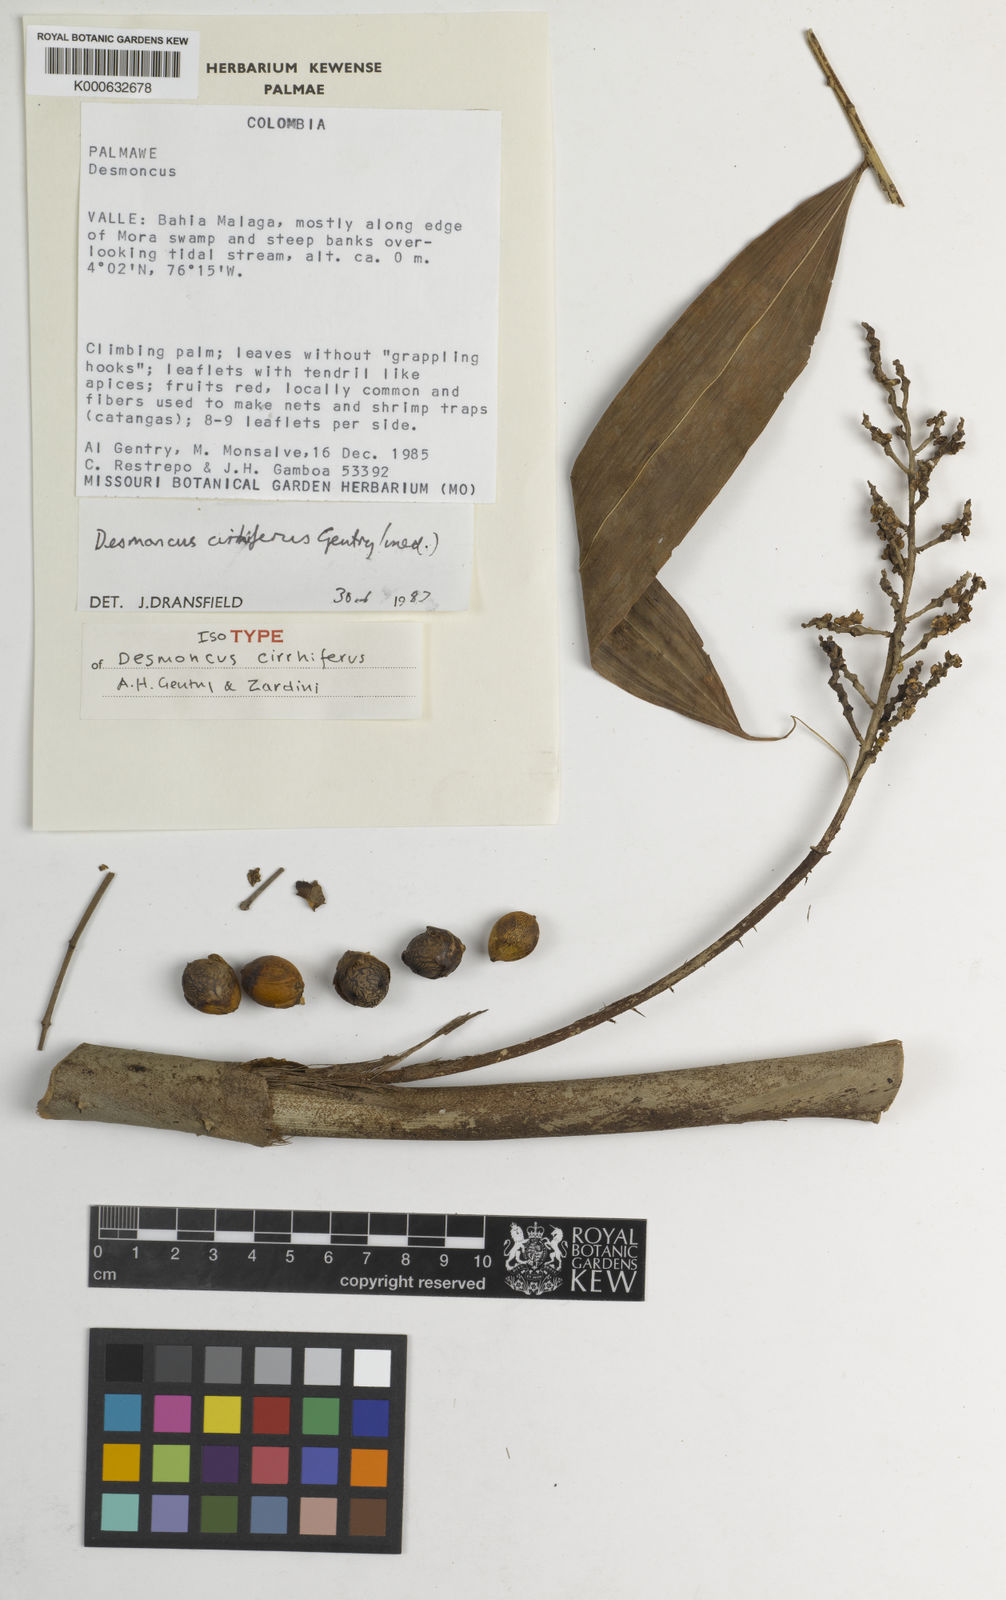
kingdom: Plantae
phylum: Tracheophyta
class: Liliopsida
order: Arecales
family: Arecaceae
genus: Desmoncus
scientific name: Desmoncus
